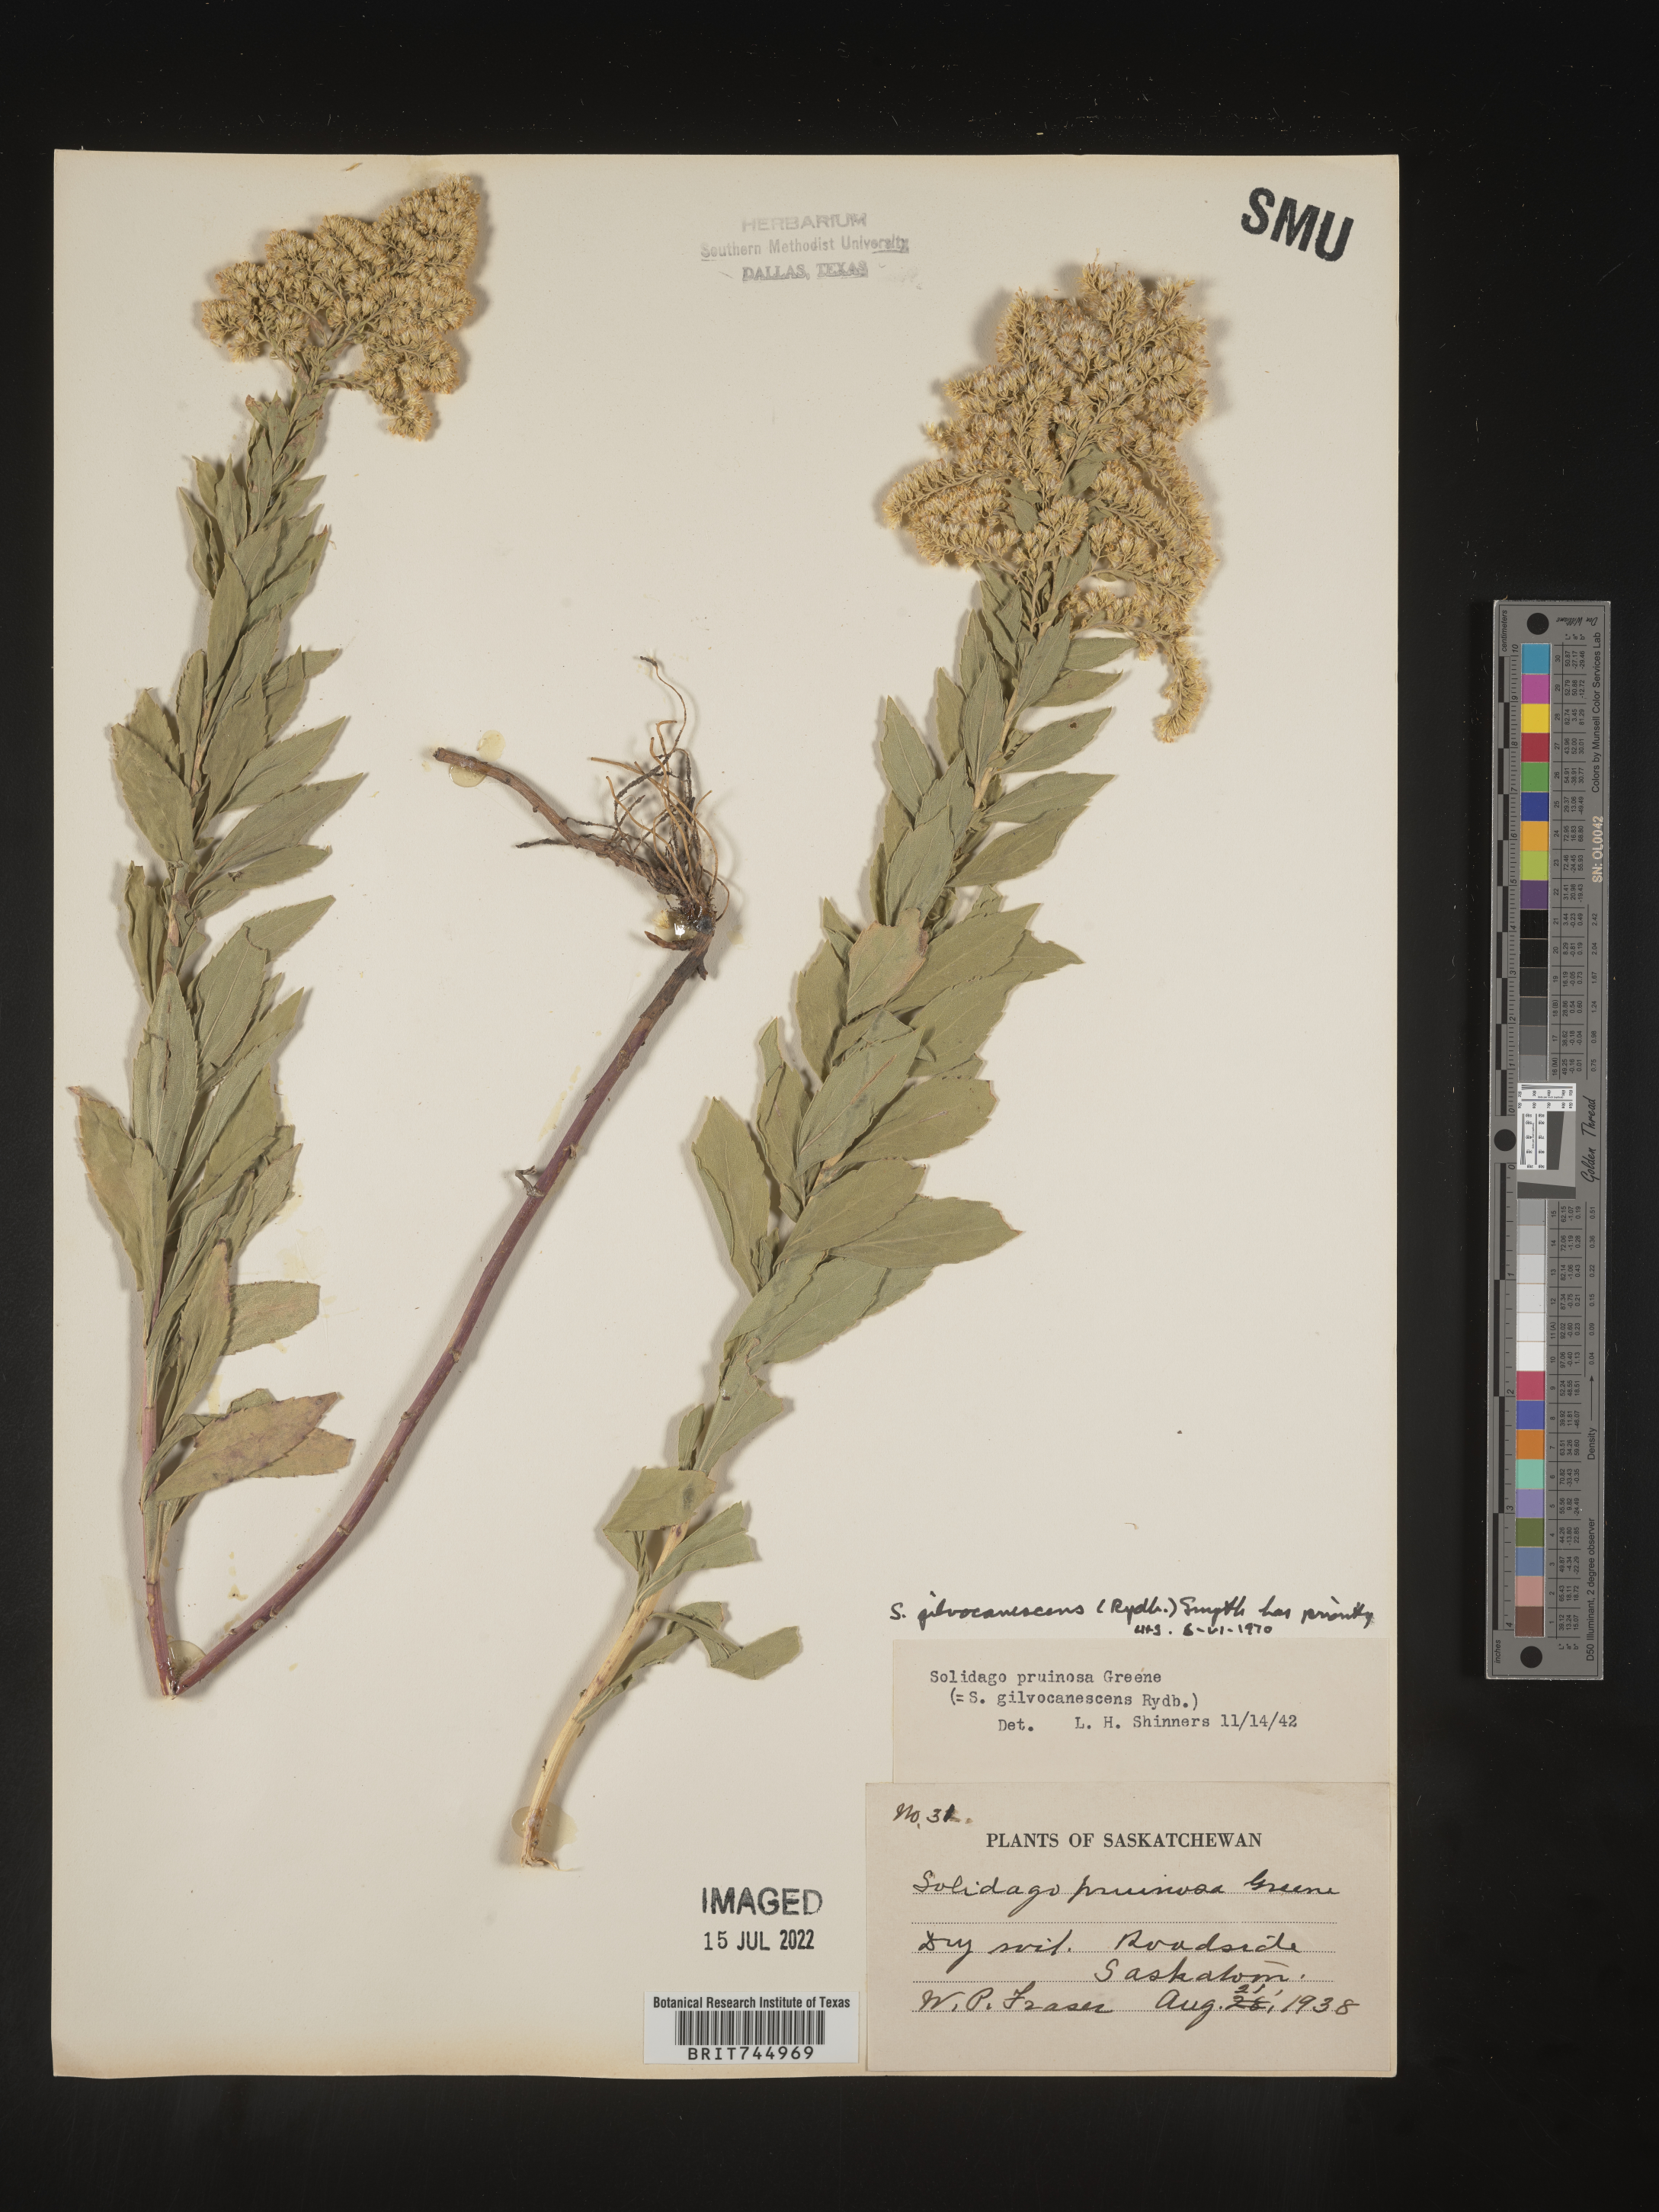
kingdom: Plantae
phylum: Tracheophyta
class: Magnoliopsida
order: Asterales
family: Asteraceae
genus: Solidago
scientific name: Solidago canadensis
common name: Canada goldenrod
